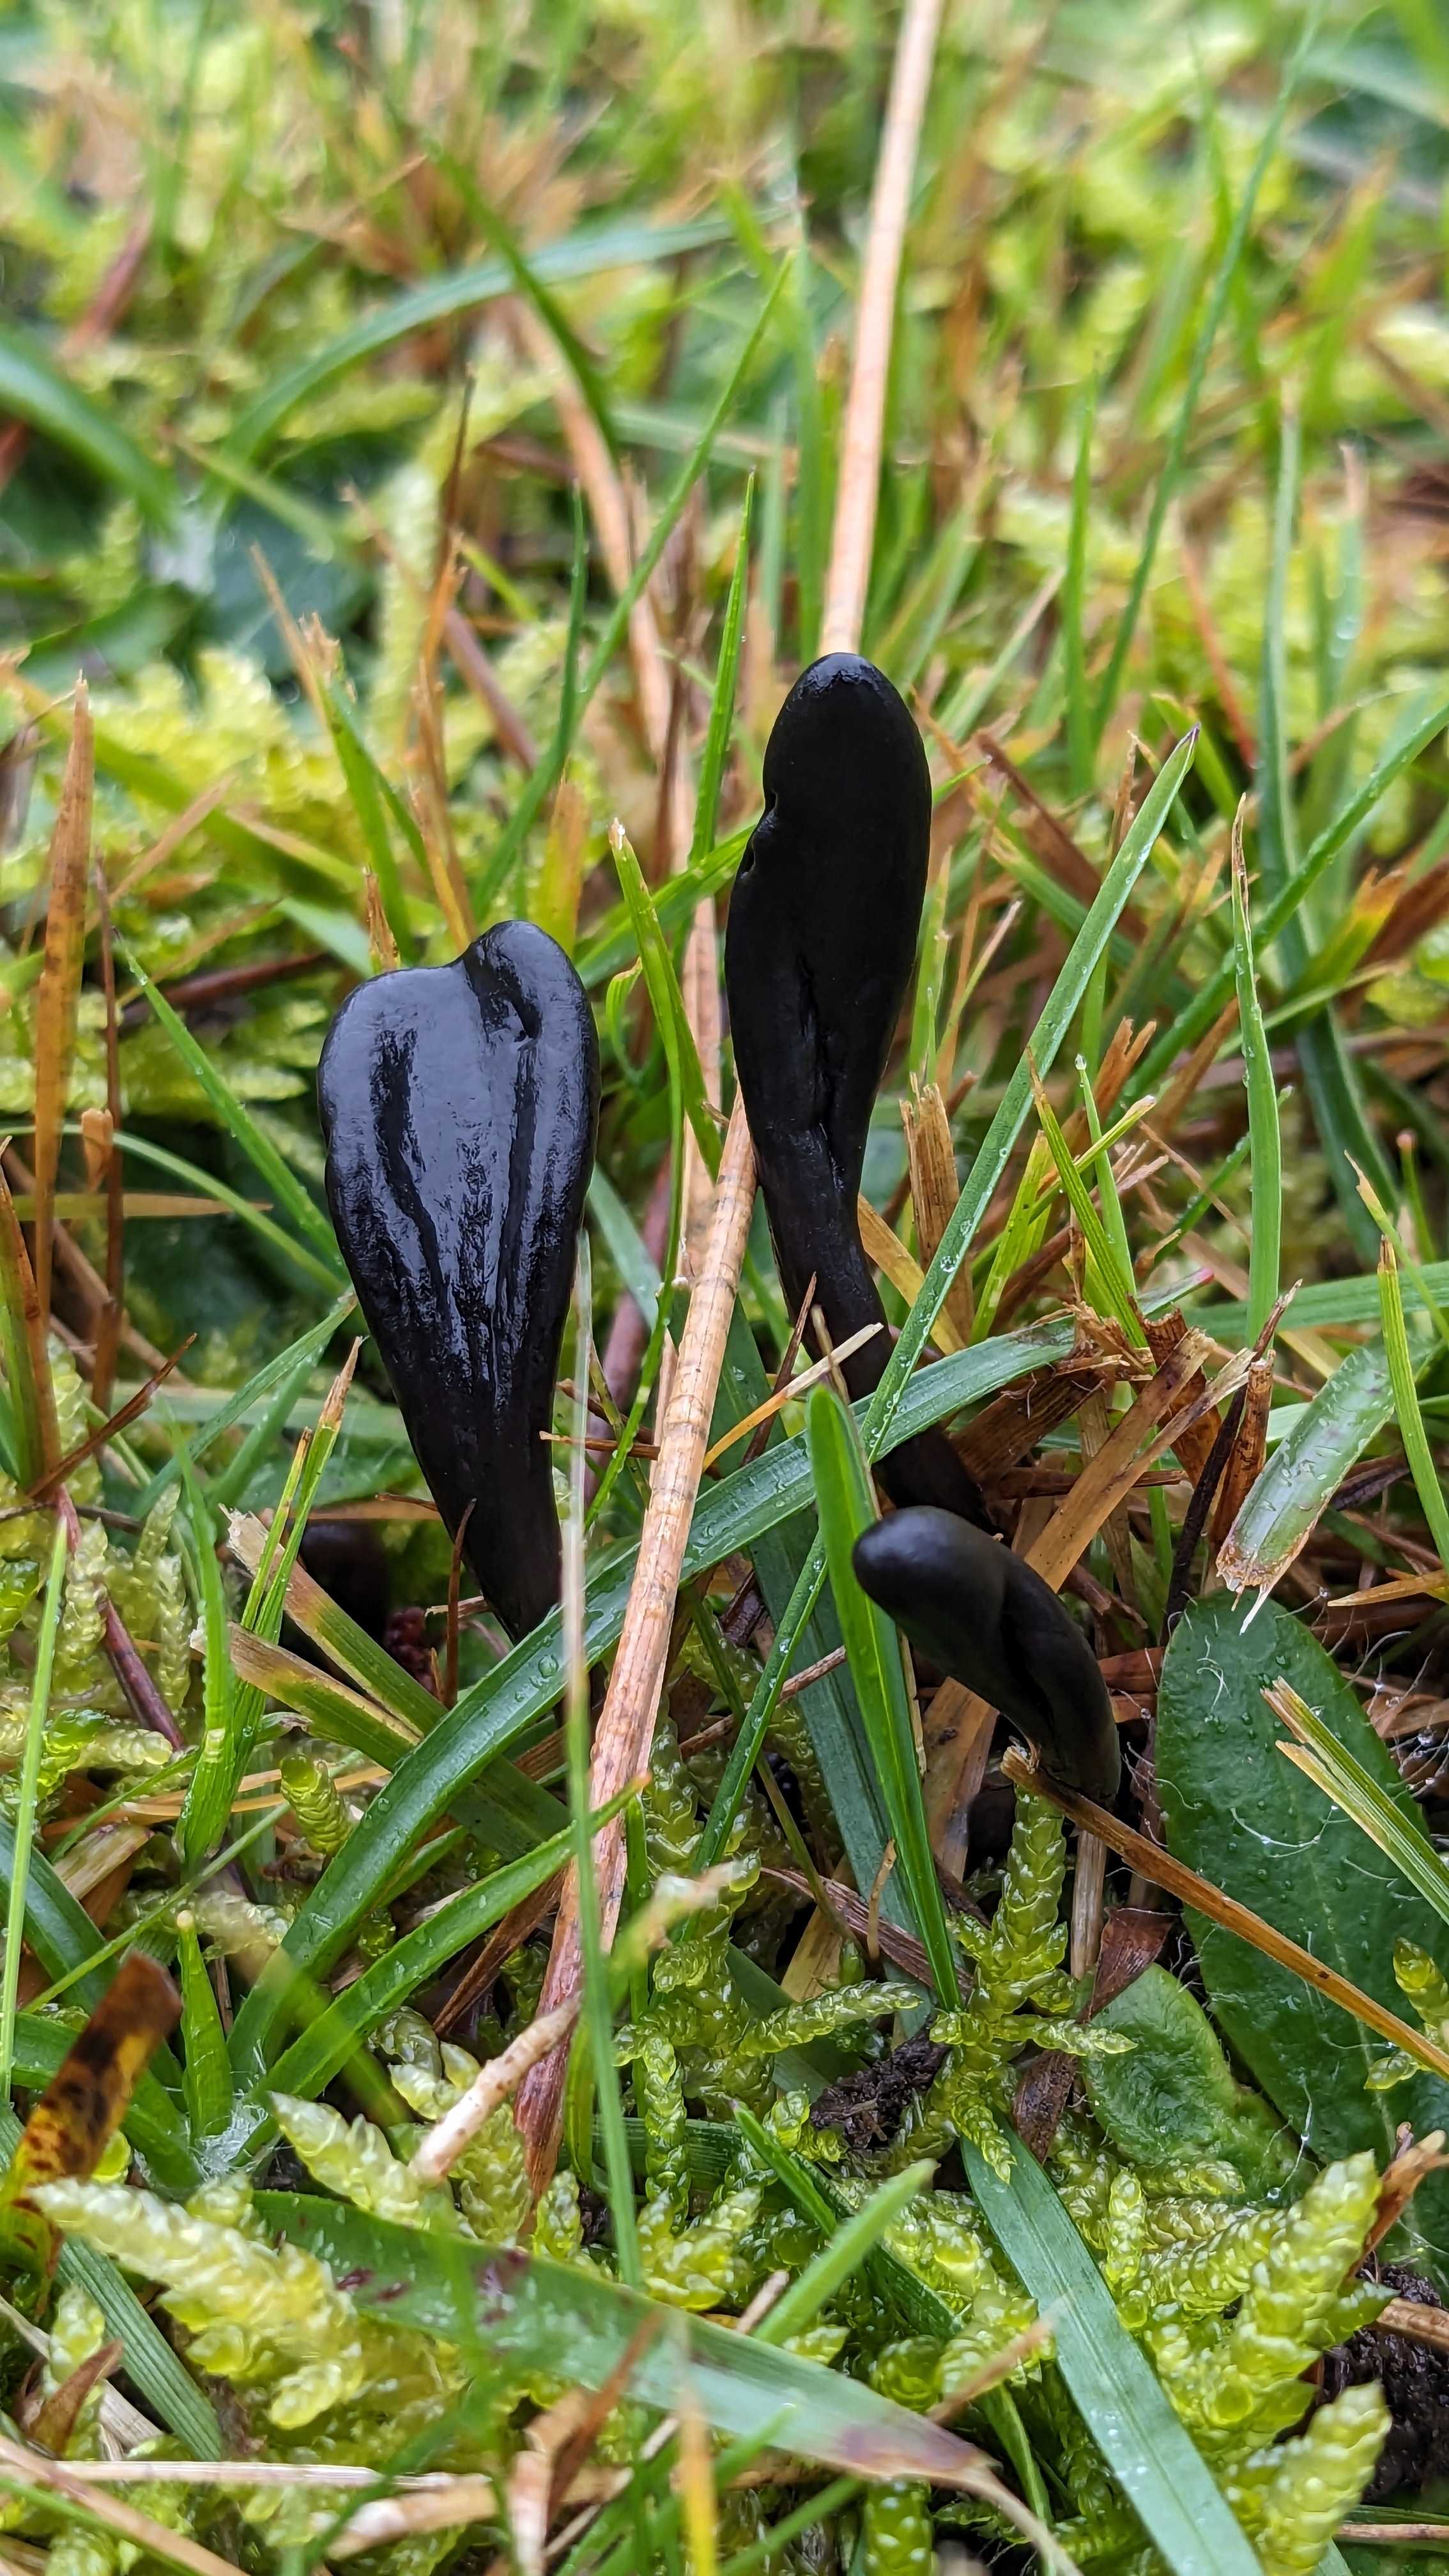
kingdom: Fungi
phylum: Ascomycota
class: Geoglossomycetes
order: Geoglossales
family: Geoglossaceae
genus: Glutinoglossum
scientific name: Glutinoglossum
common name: jordtunge
